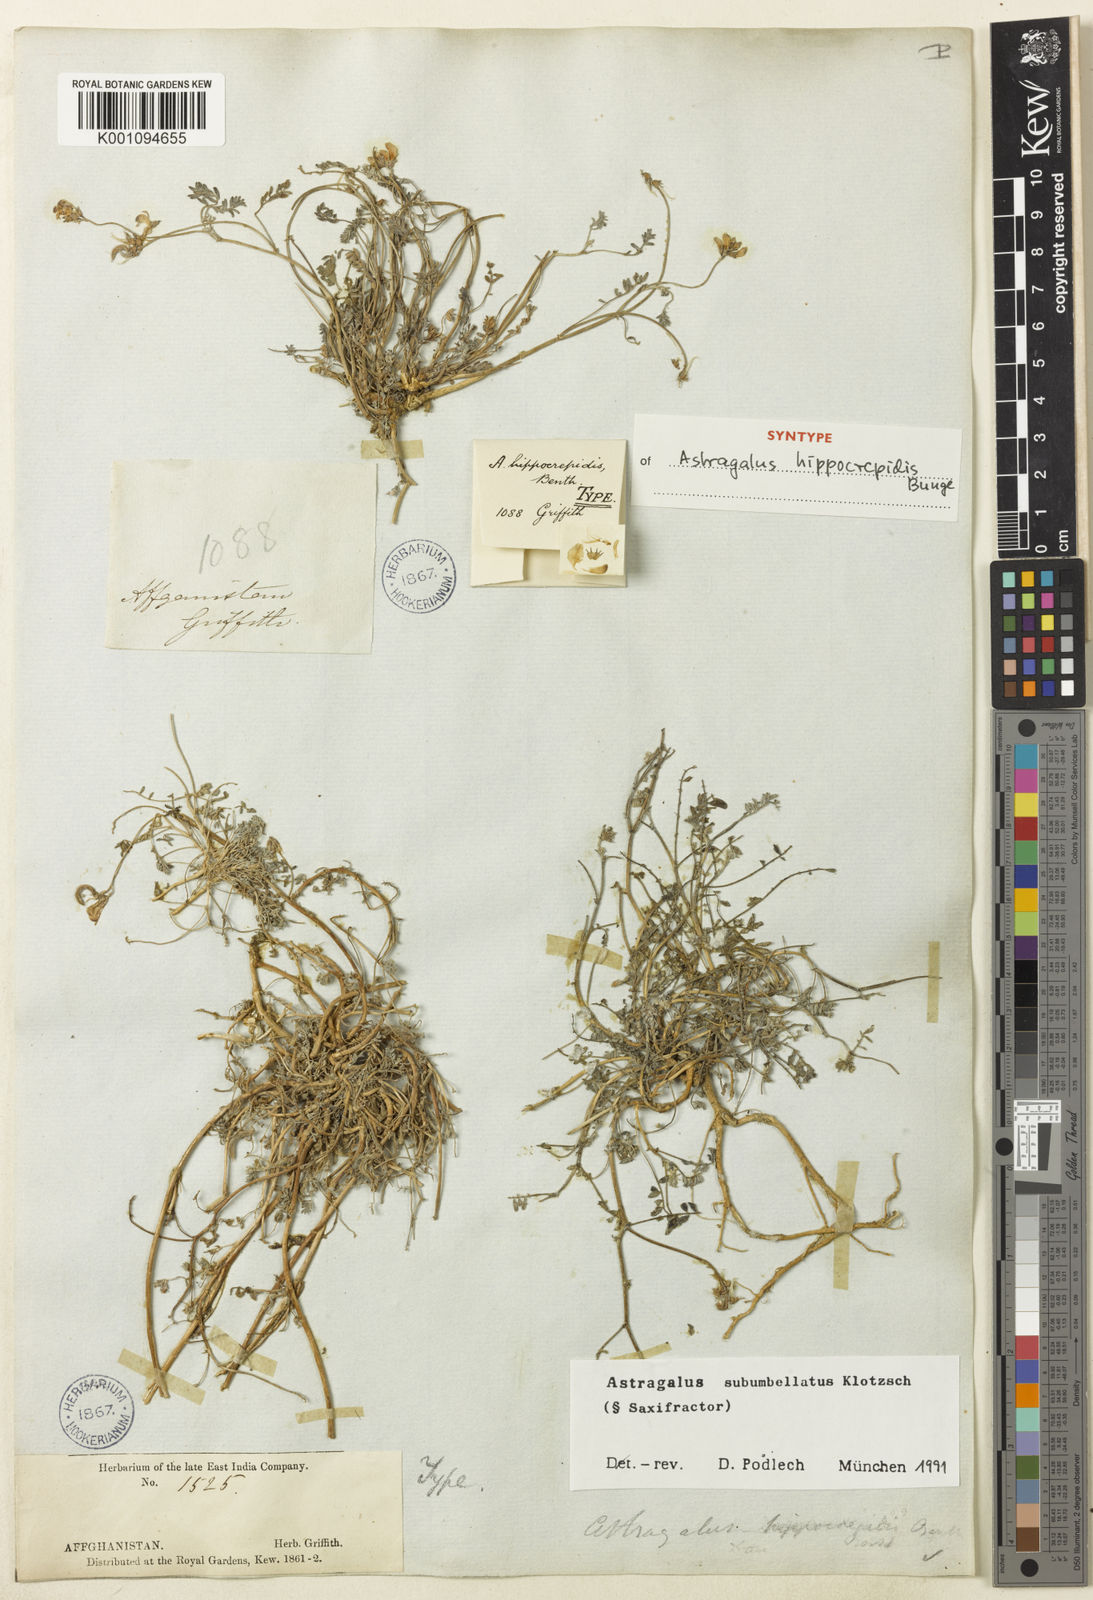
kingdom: Plantae
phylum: Tracheophyta
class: Magnoliopsida
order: Fabales
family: Fabaceae
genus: Astragalus
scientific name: Astragalus
